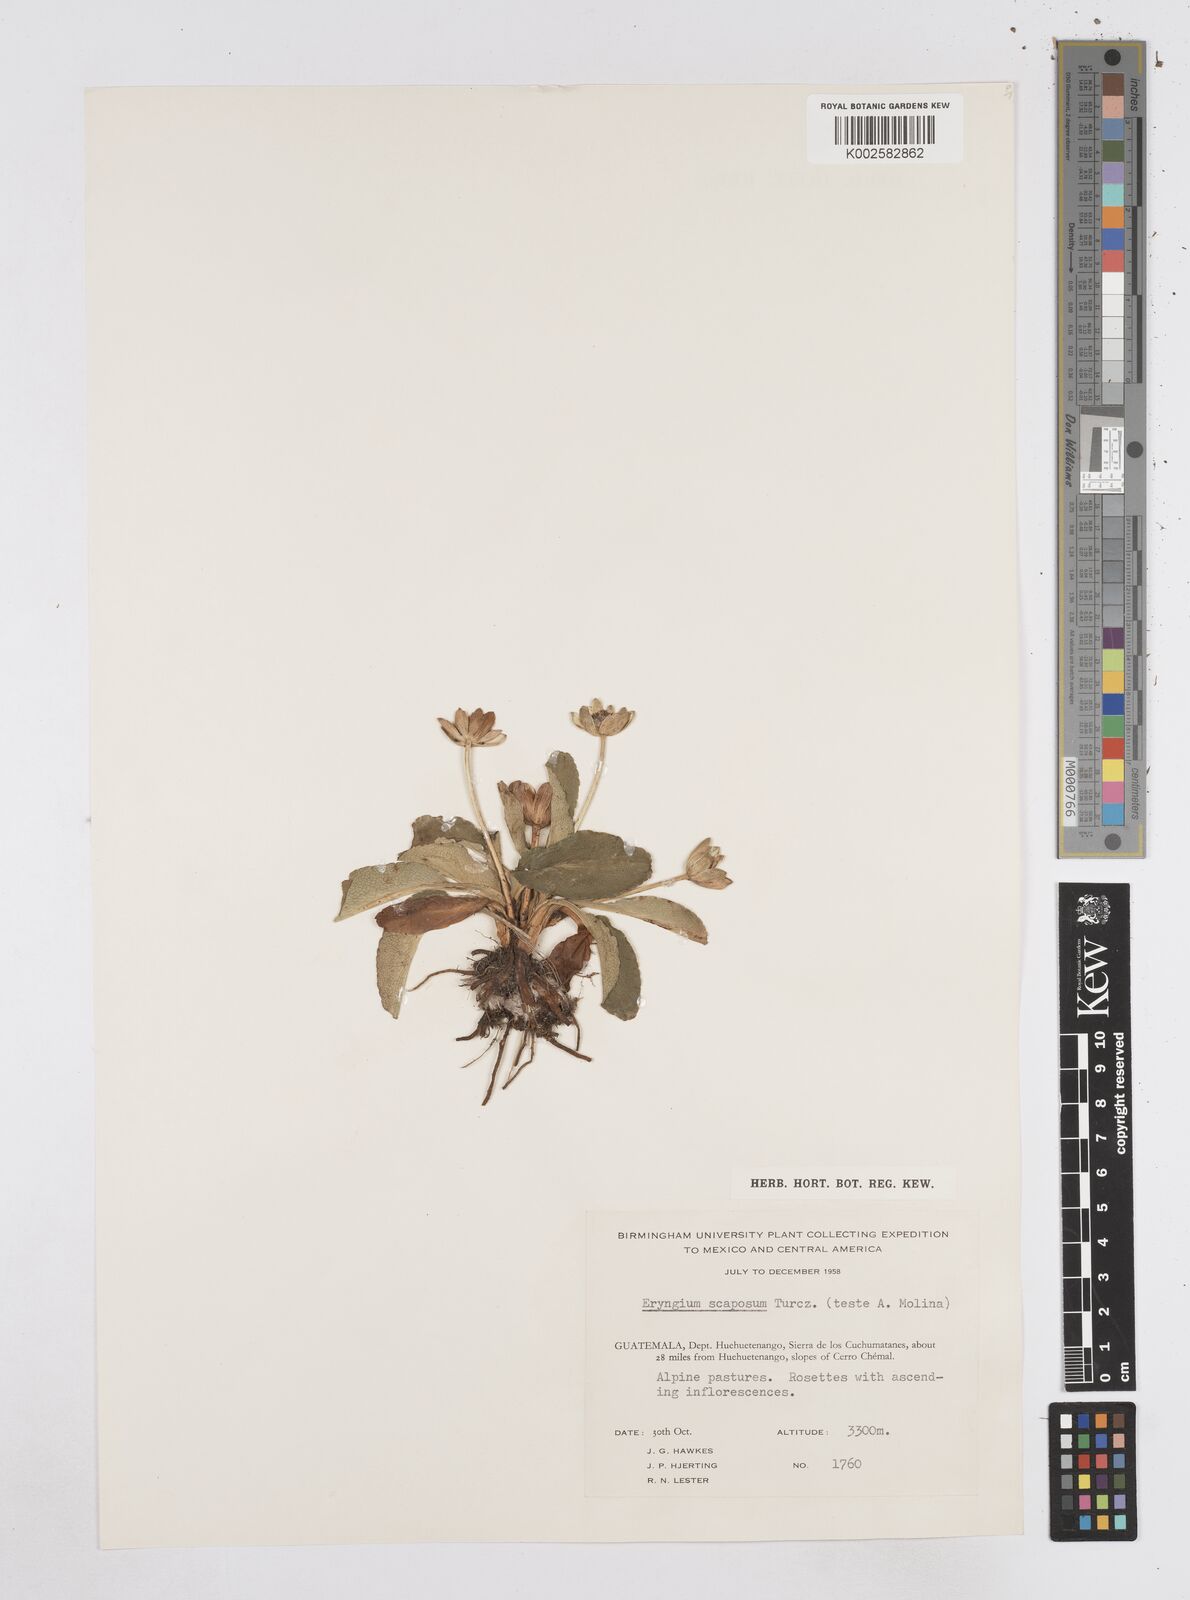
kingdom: Plantae
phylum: Tracheophyta
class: Magnoliopsida
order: Apiales
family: Apiaceae
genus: Eryngium
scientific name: Eryngium scaposum
